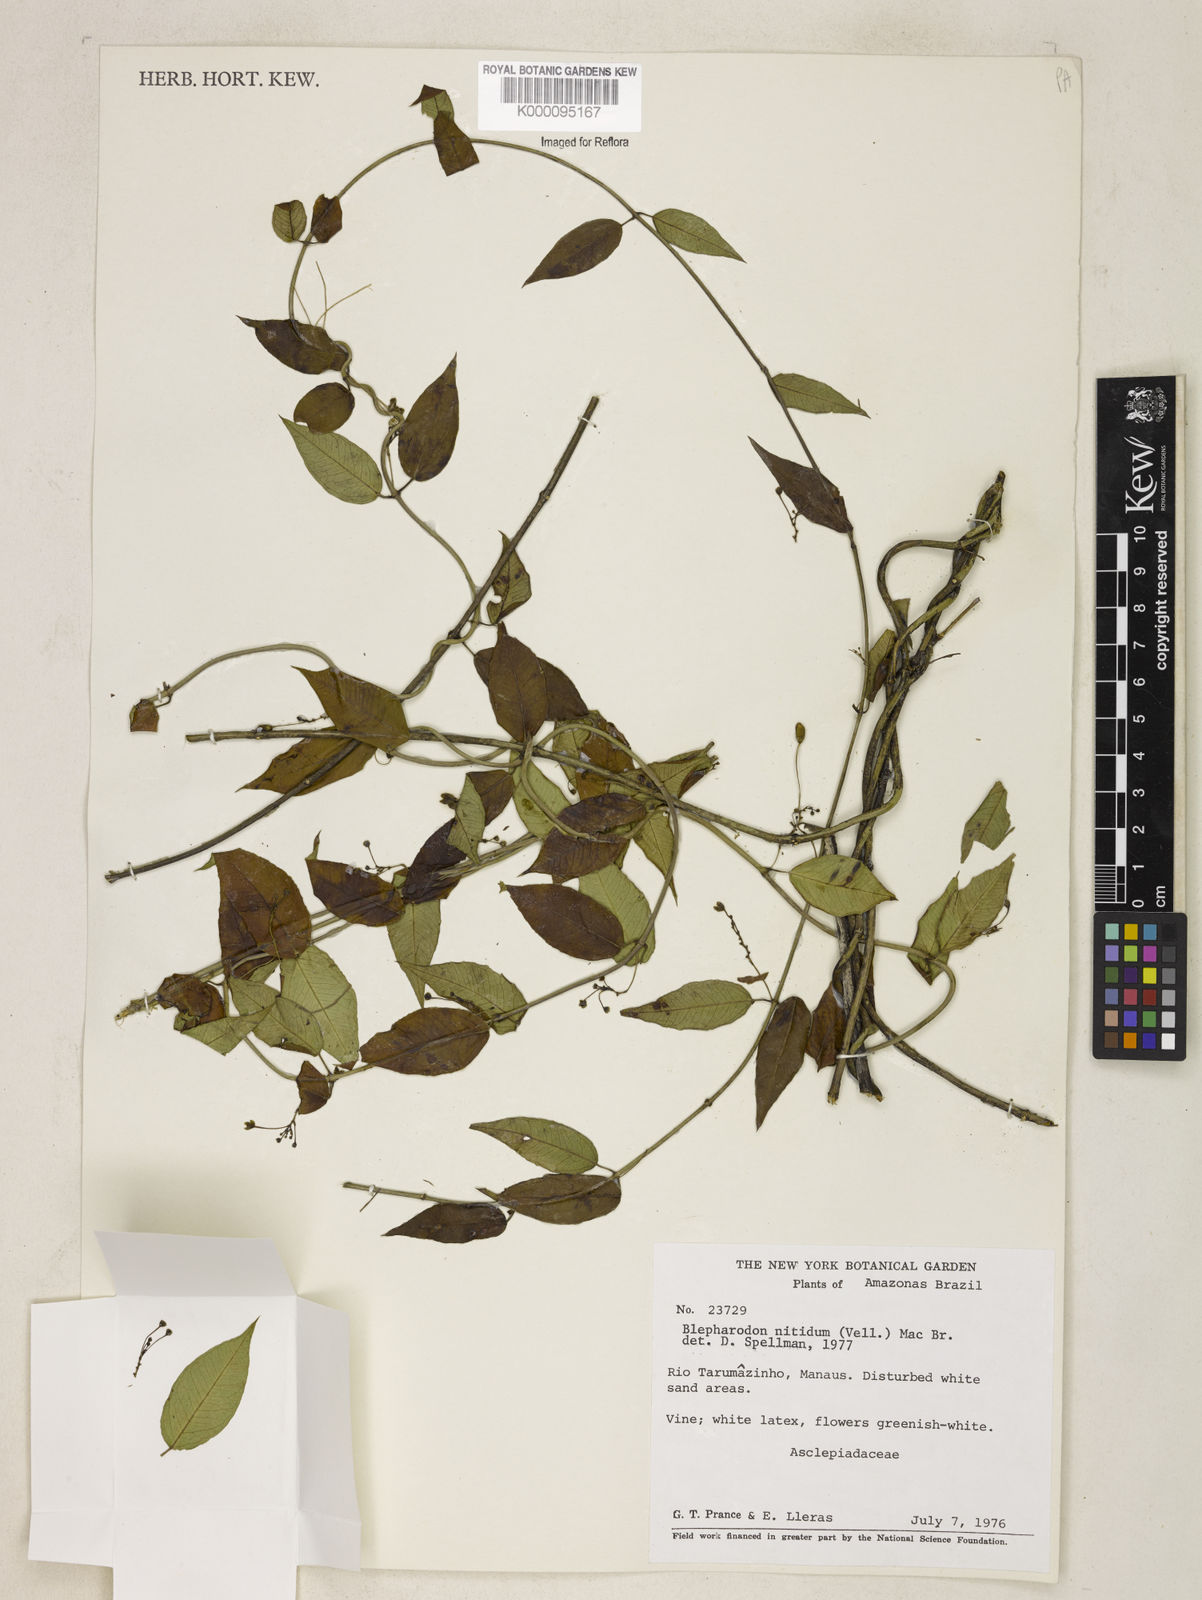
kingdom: Plantae
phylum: Tracheophyta
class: Magnoliopsida
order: Gentianales
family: Apocynaceae
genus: Blepharodon
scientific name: Blepharodon pictum
